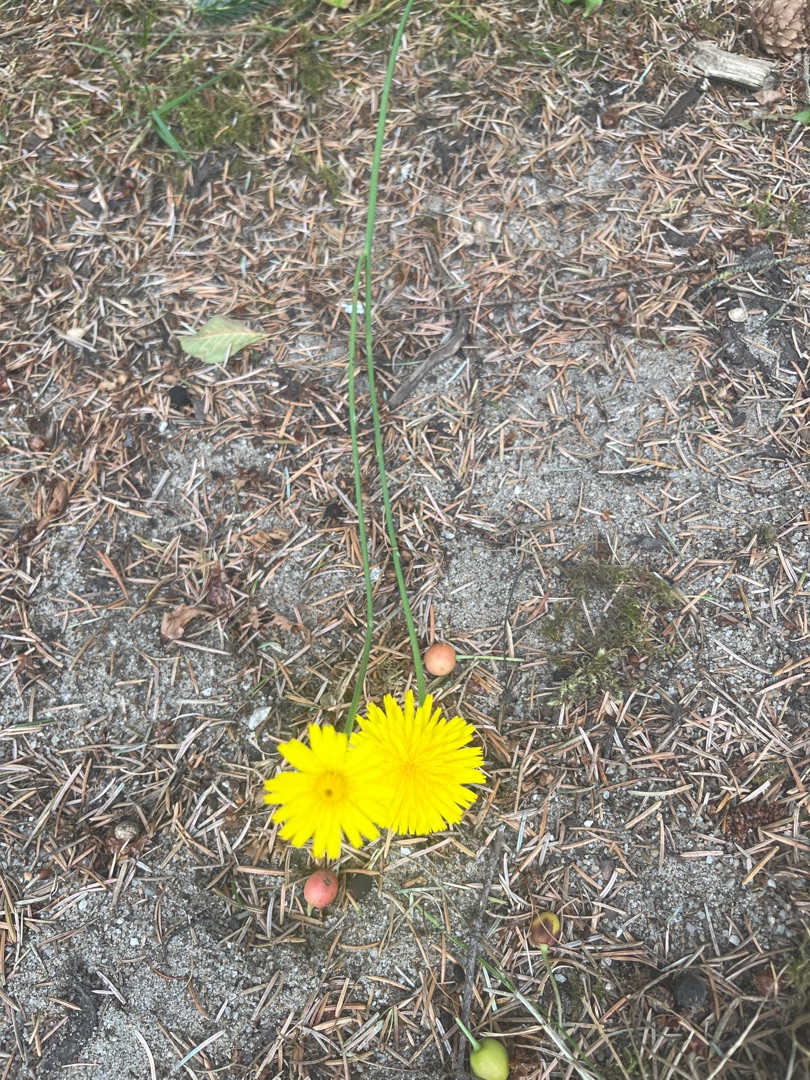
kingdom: Plantae
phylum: Tracheophyta
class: Magnoliopsida
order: Asterales
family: Asteraceae
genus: Hypochaeris
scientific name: Hypochaeris radicata
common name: Almindelig kongepen
